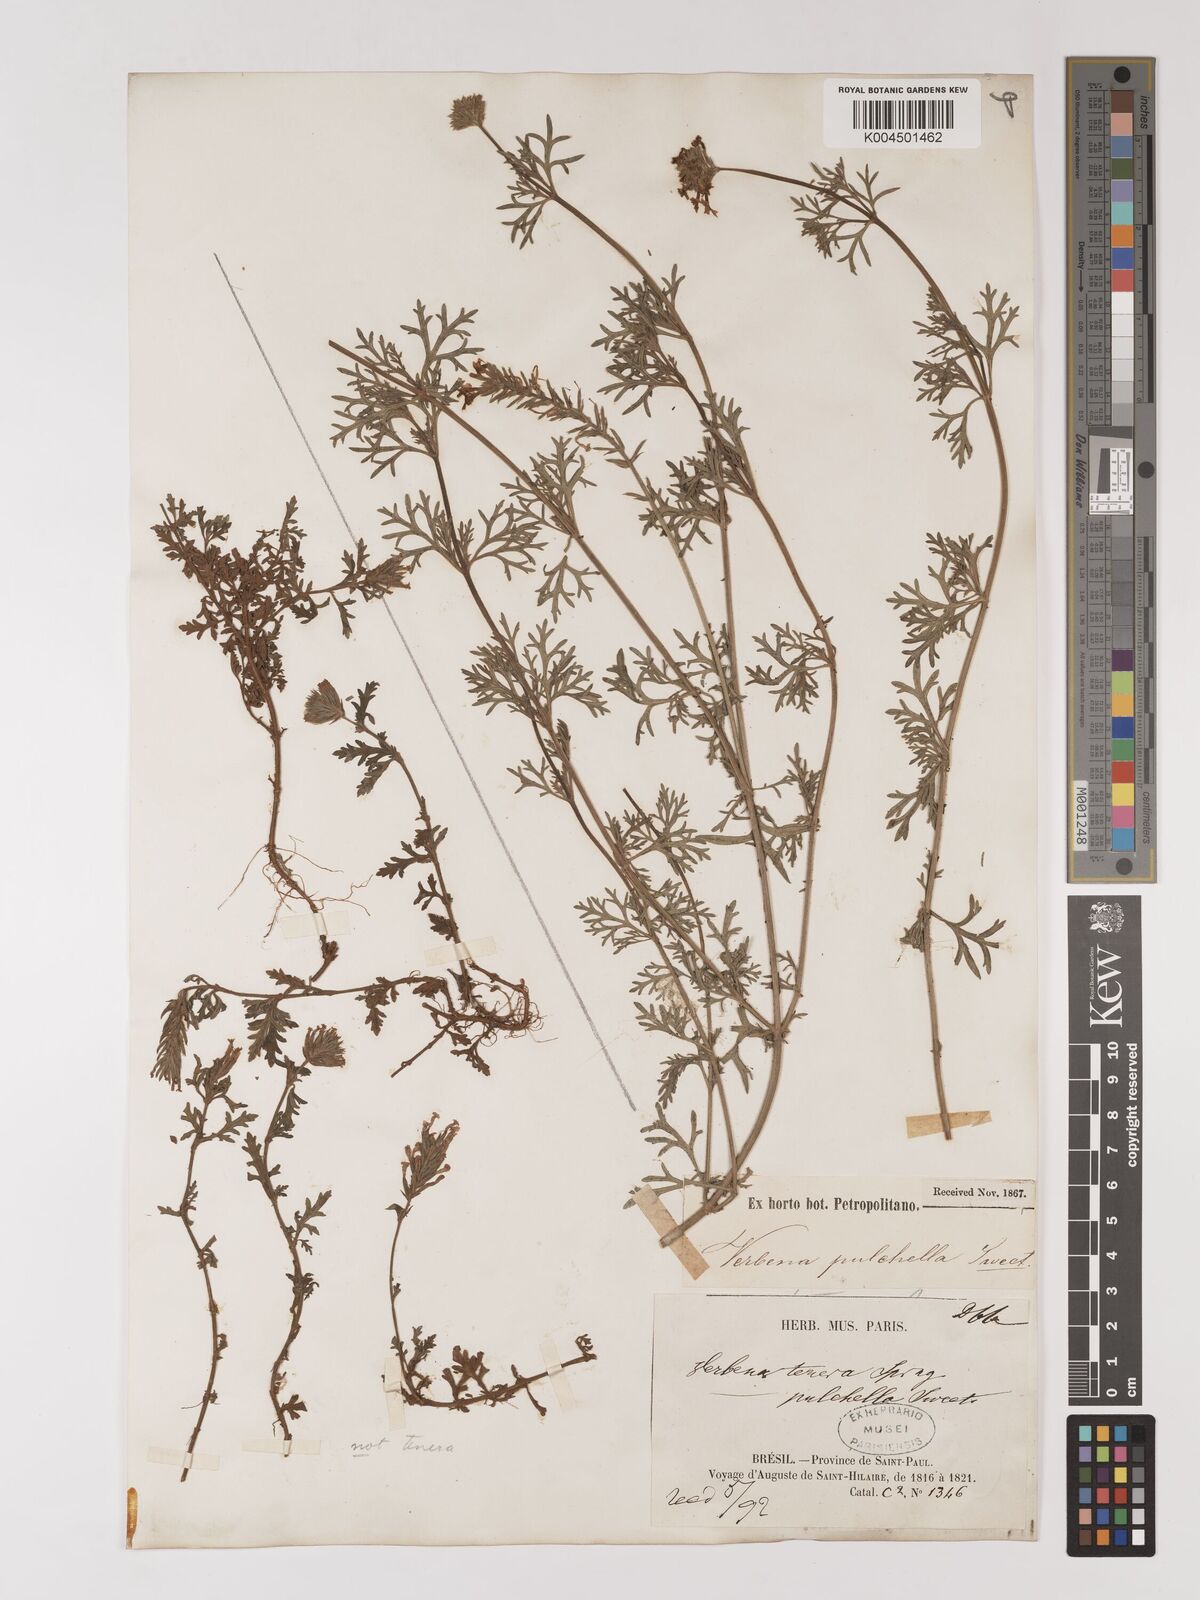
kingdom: Plantae
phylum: Tracheophyta
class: Magnoliopsida
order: Lamiales
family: Verbenaceae
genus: Verbena
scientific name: Verbena tenera
